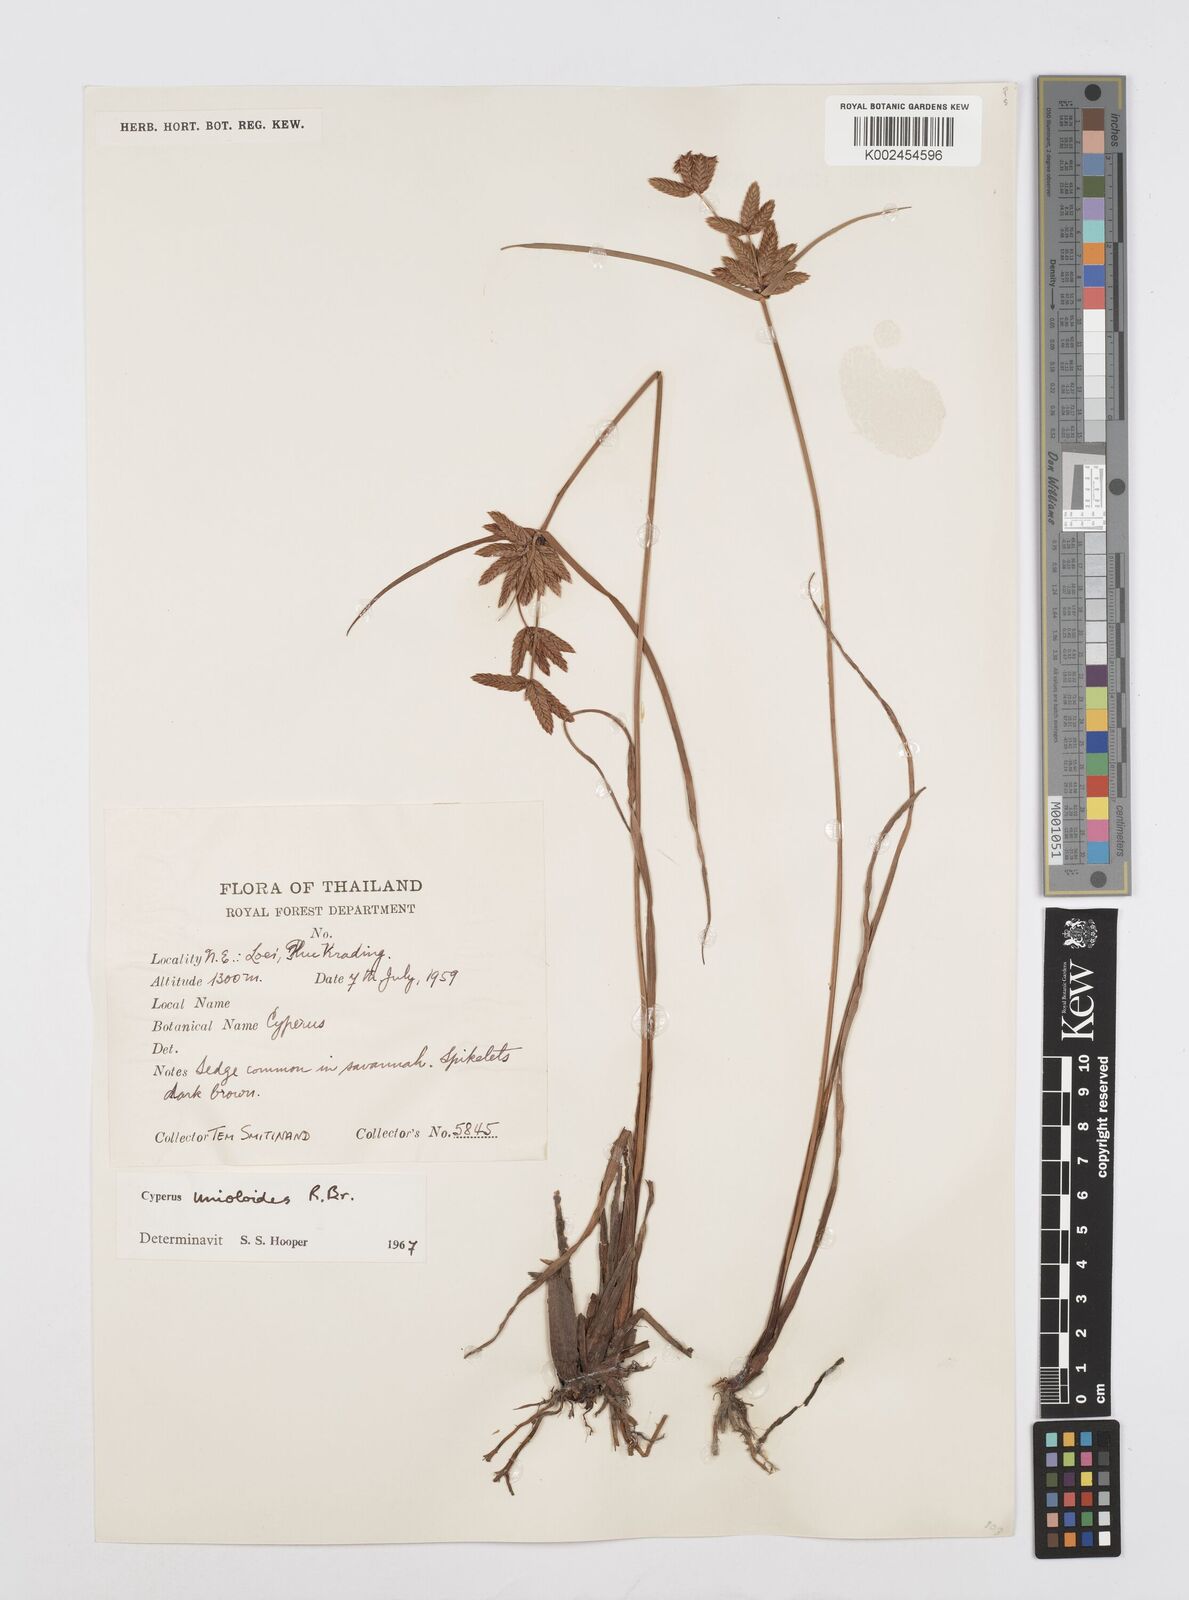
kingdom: Plantae
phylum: Tracheophyta
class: Liliopsida
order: Poales
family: Cyperaceae
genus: Cyperus
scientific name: Cyperus unioloides
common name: Uniola flatsedge
